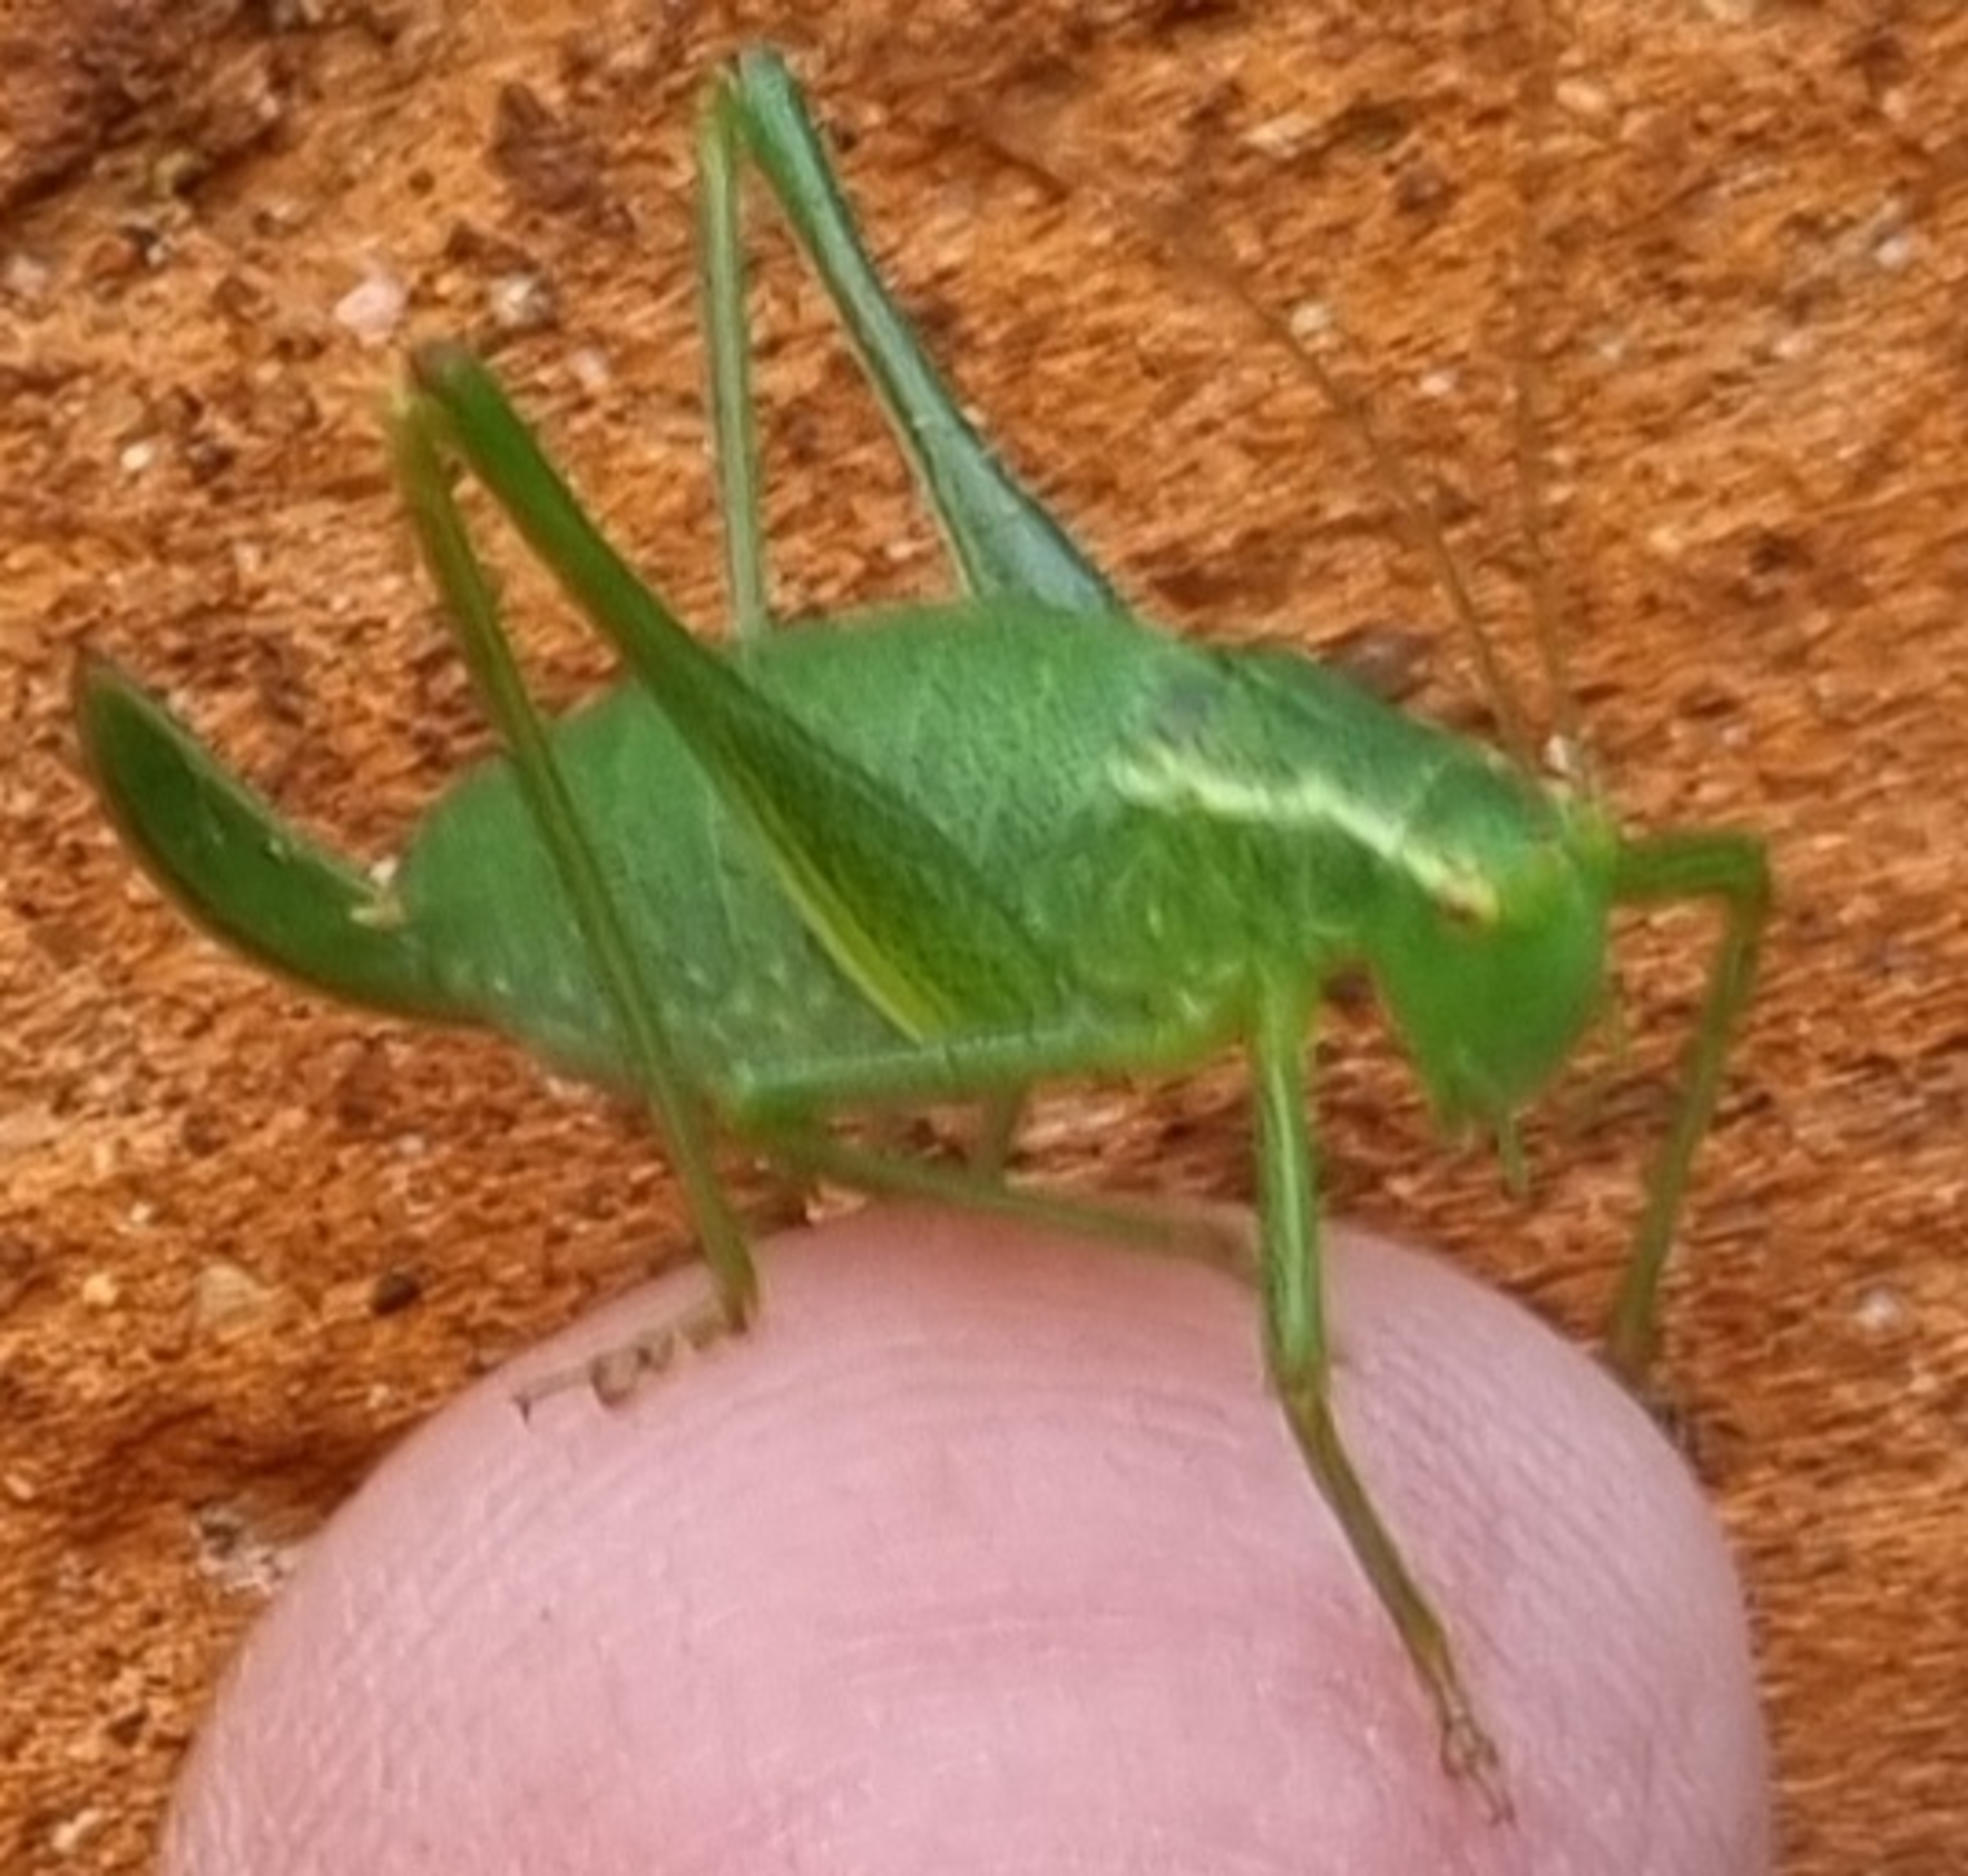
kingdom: Animalia
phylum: Arthropoda
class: Insecta
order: Orthoptera
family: Tettigoniidae
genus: Leptophyes
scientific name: Leptophyes punctatissima
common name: Krumknivgræshoppe
